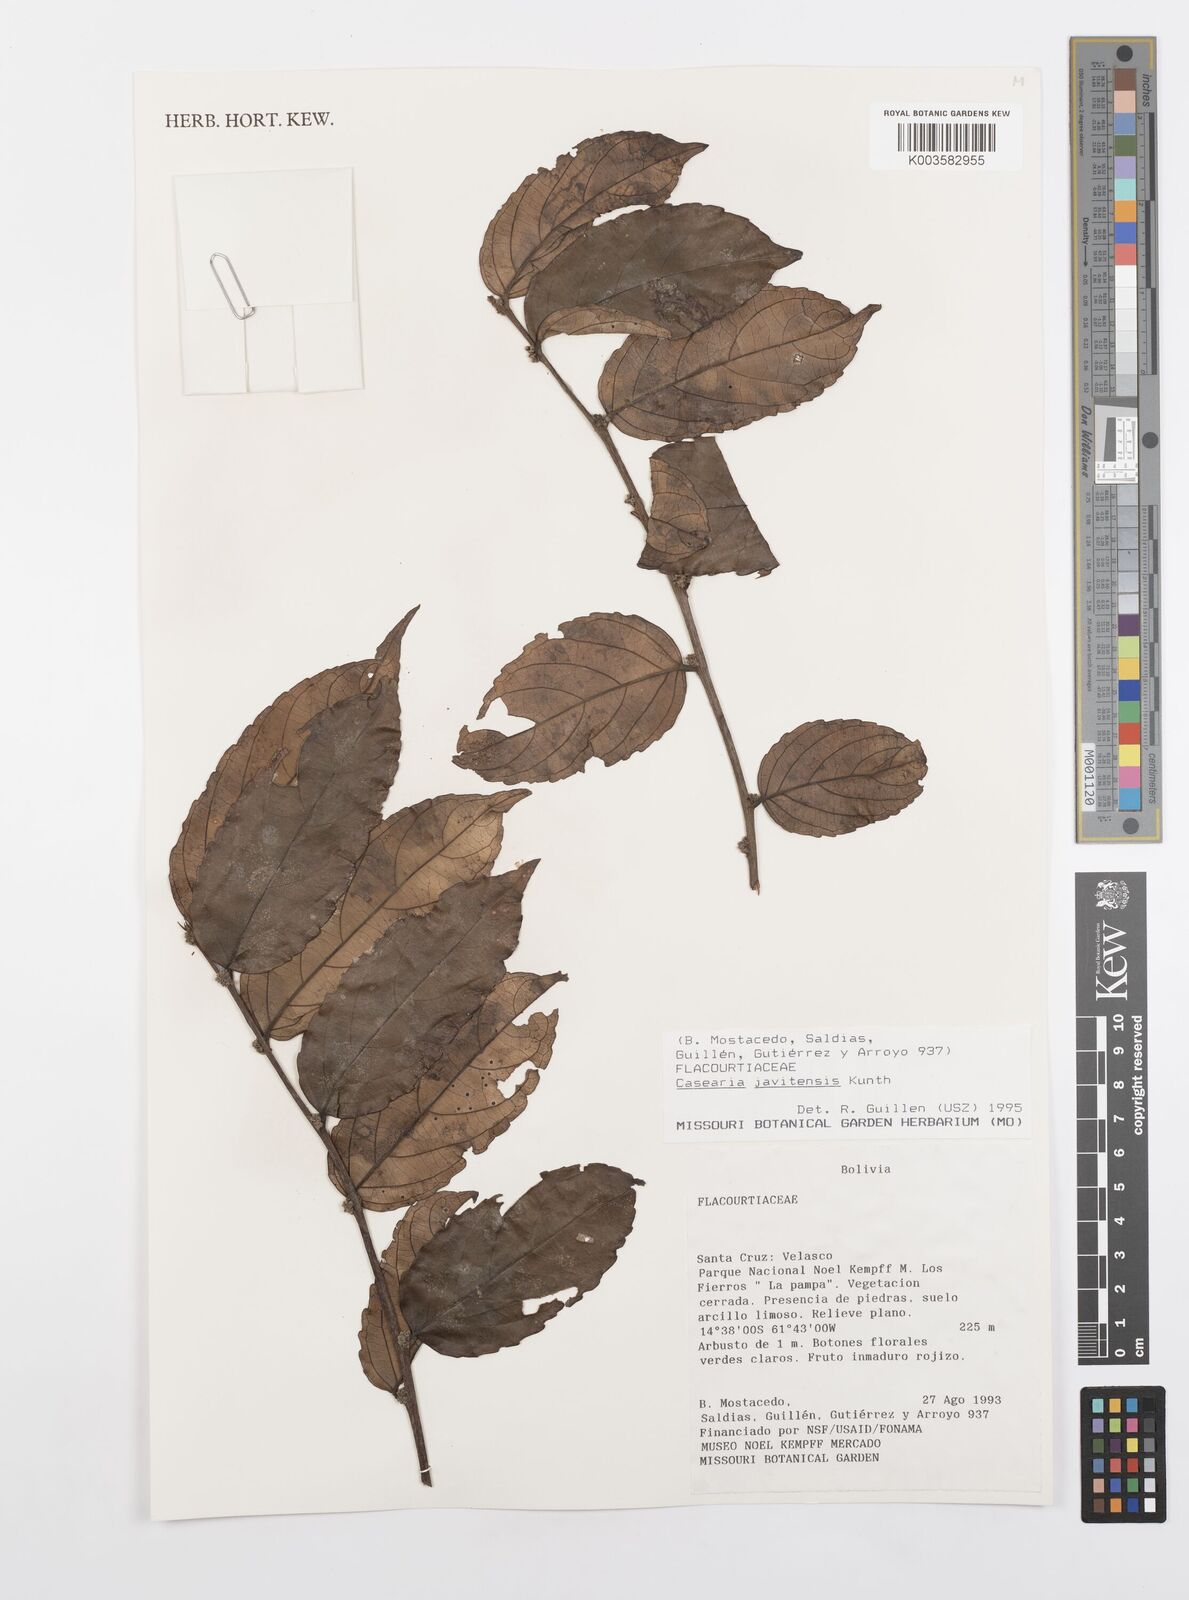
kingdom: Plantae
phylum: Tracheophyta
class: Magnoliopsida
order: Malpighiales
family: Salicaceae
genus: Piparea
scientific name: Piparea multiflora
